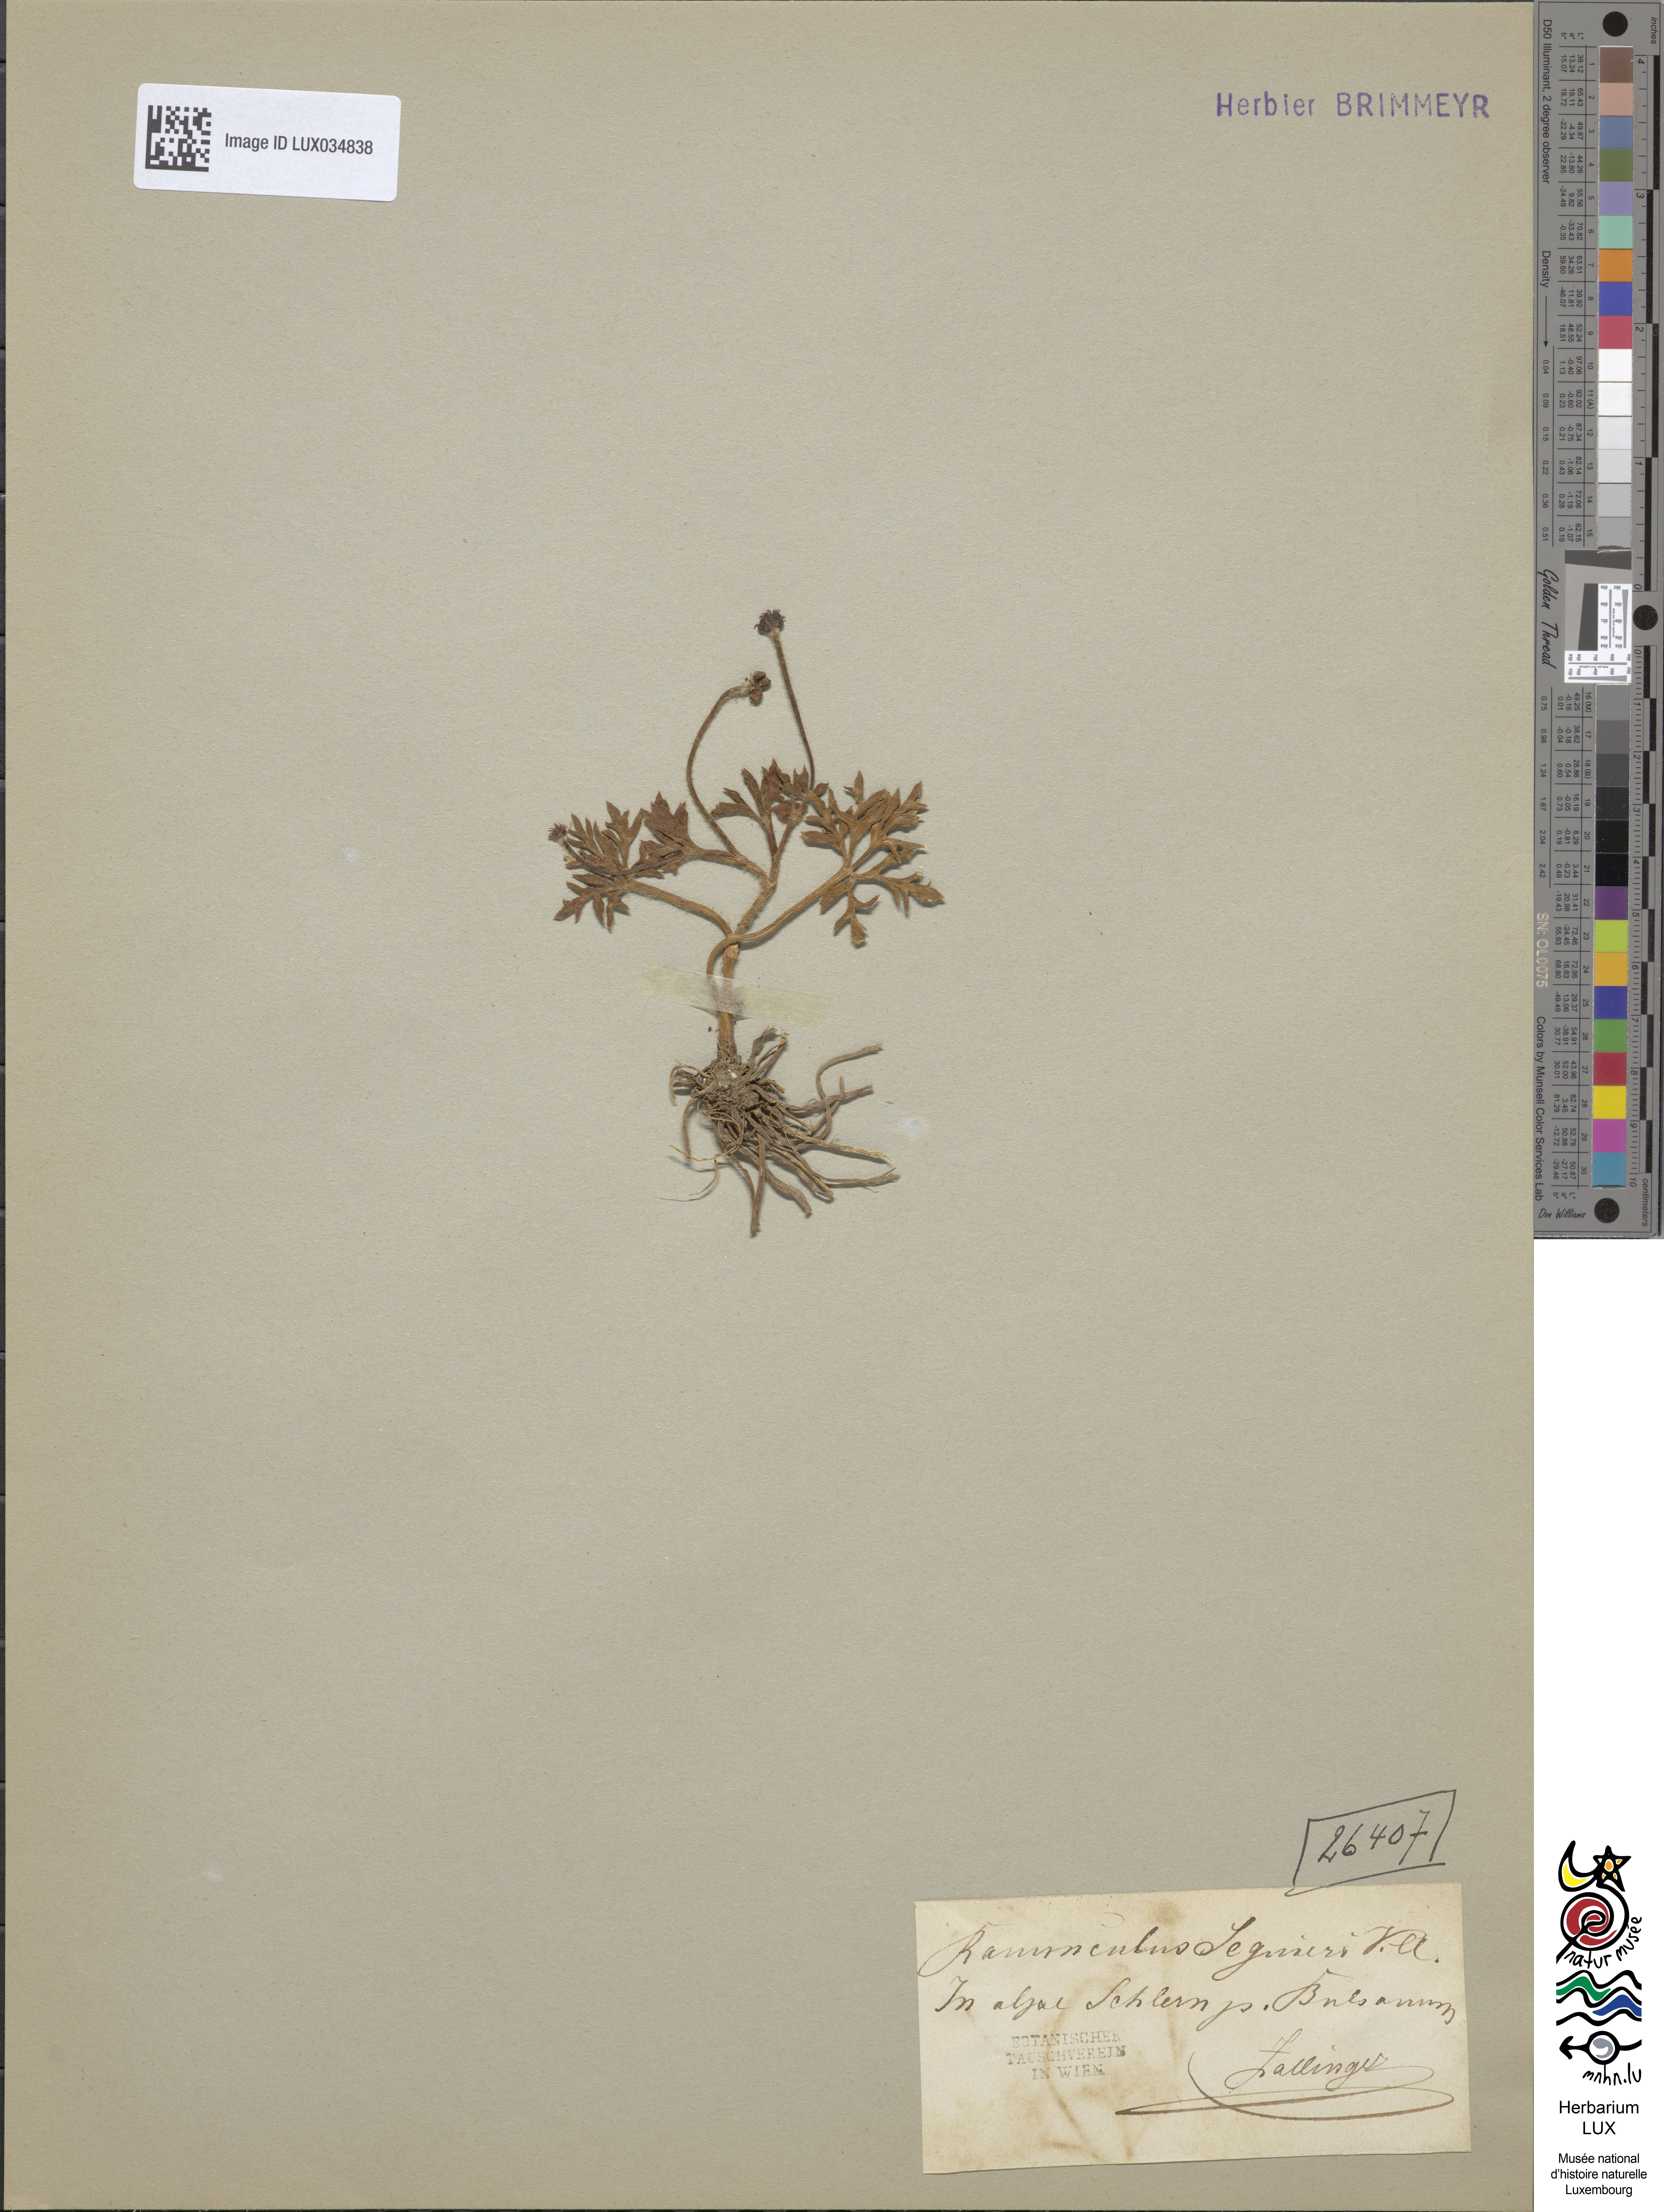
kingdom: Plantae
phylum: Tracheophyta
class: Magnoliopsida
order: Ranunculales
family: Ranunculaceae
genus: Ranunculus
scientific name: Ranunculus seguieri
